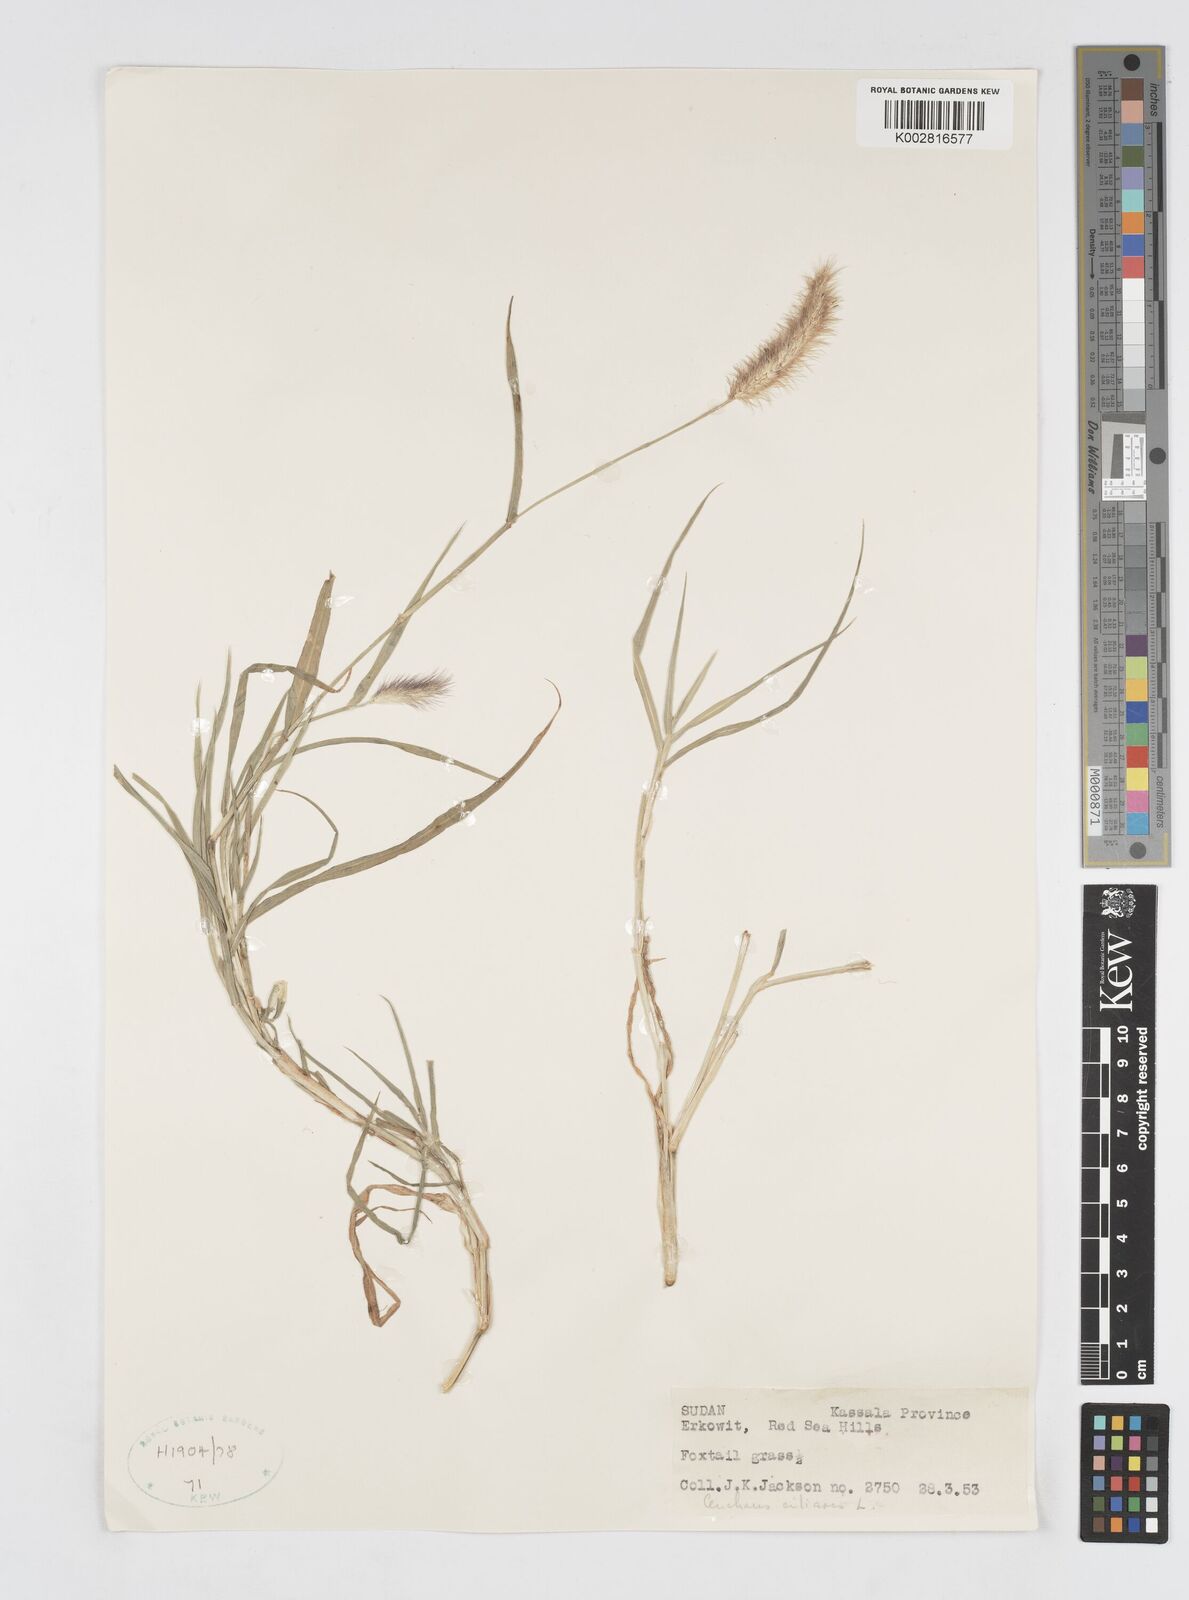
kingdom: Plantae
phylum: Tracheophyta
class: Liliopsida
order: Poales
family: Poaceae
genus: Cenchrus
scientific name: Cenchrus ciliaris
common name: Buffelgrass
